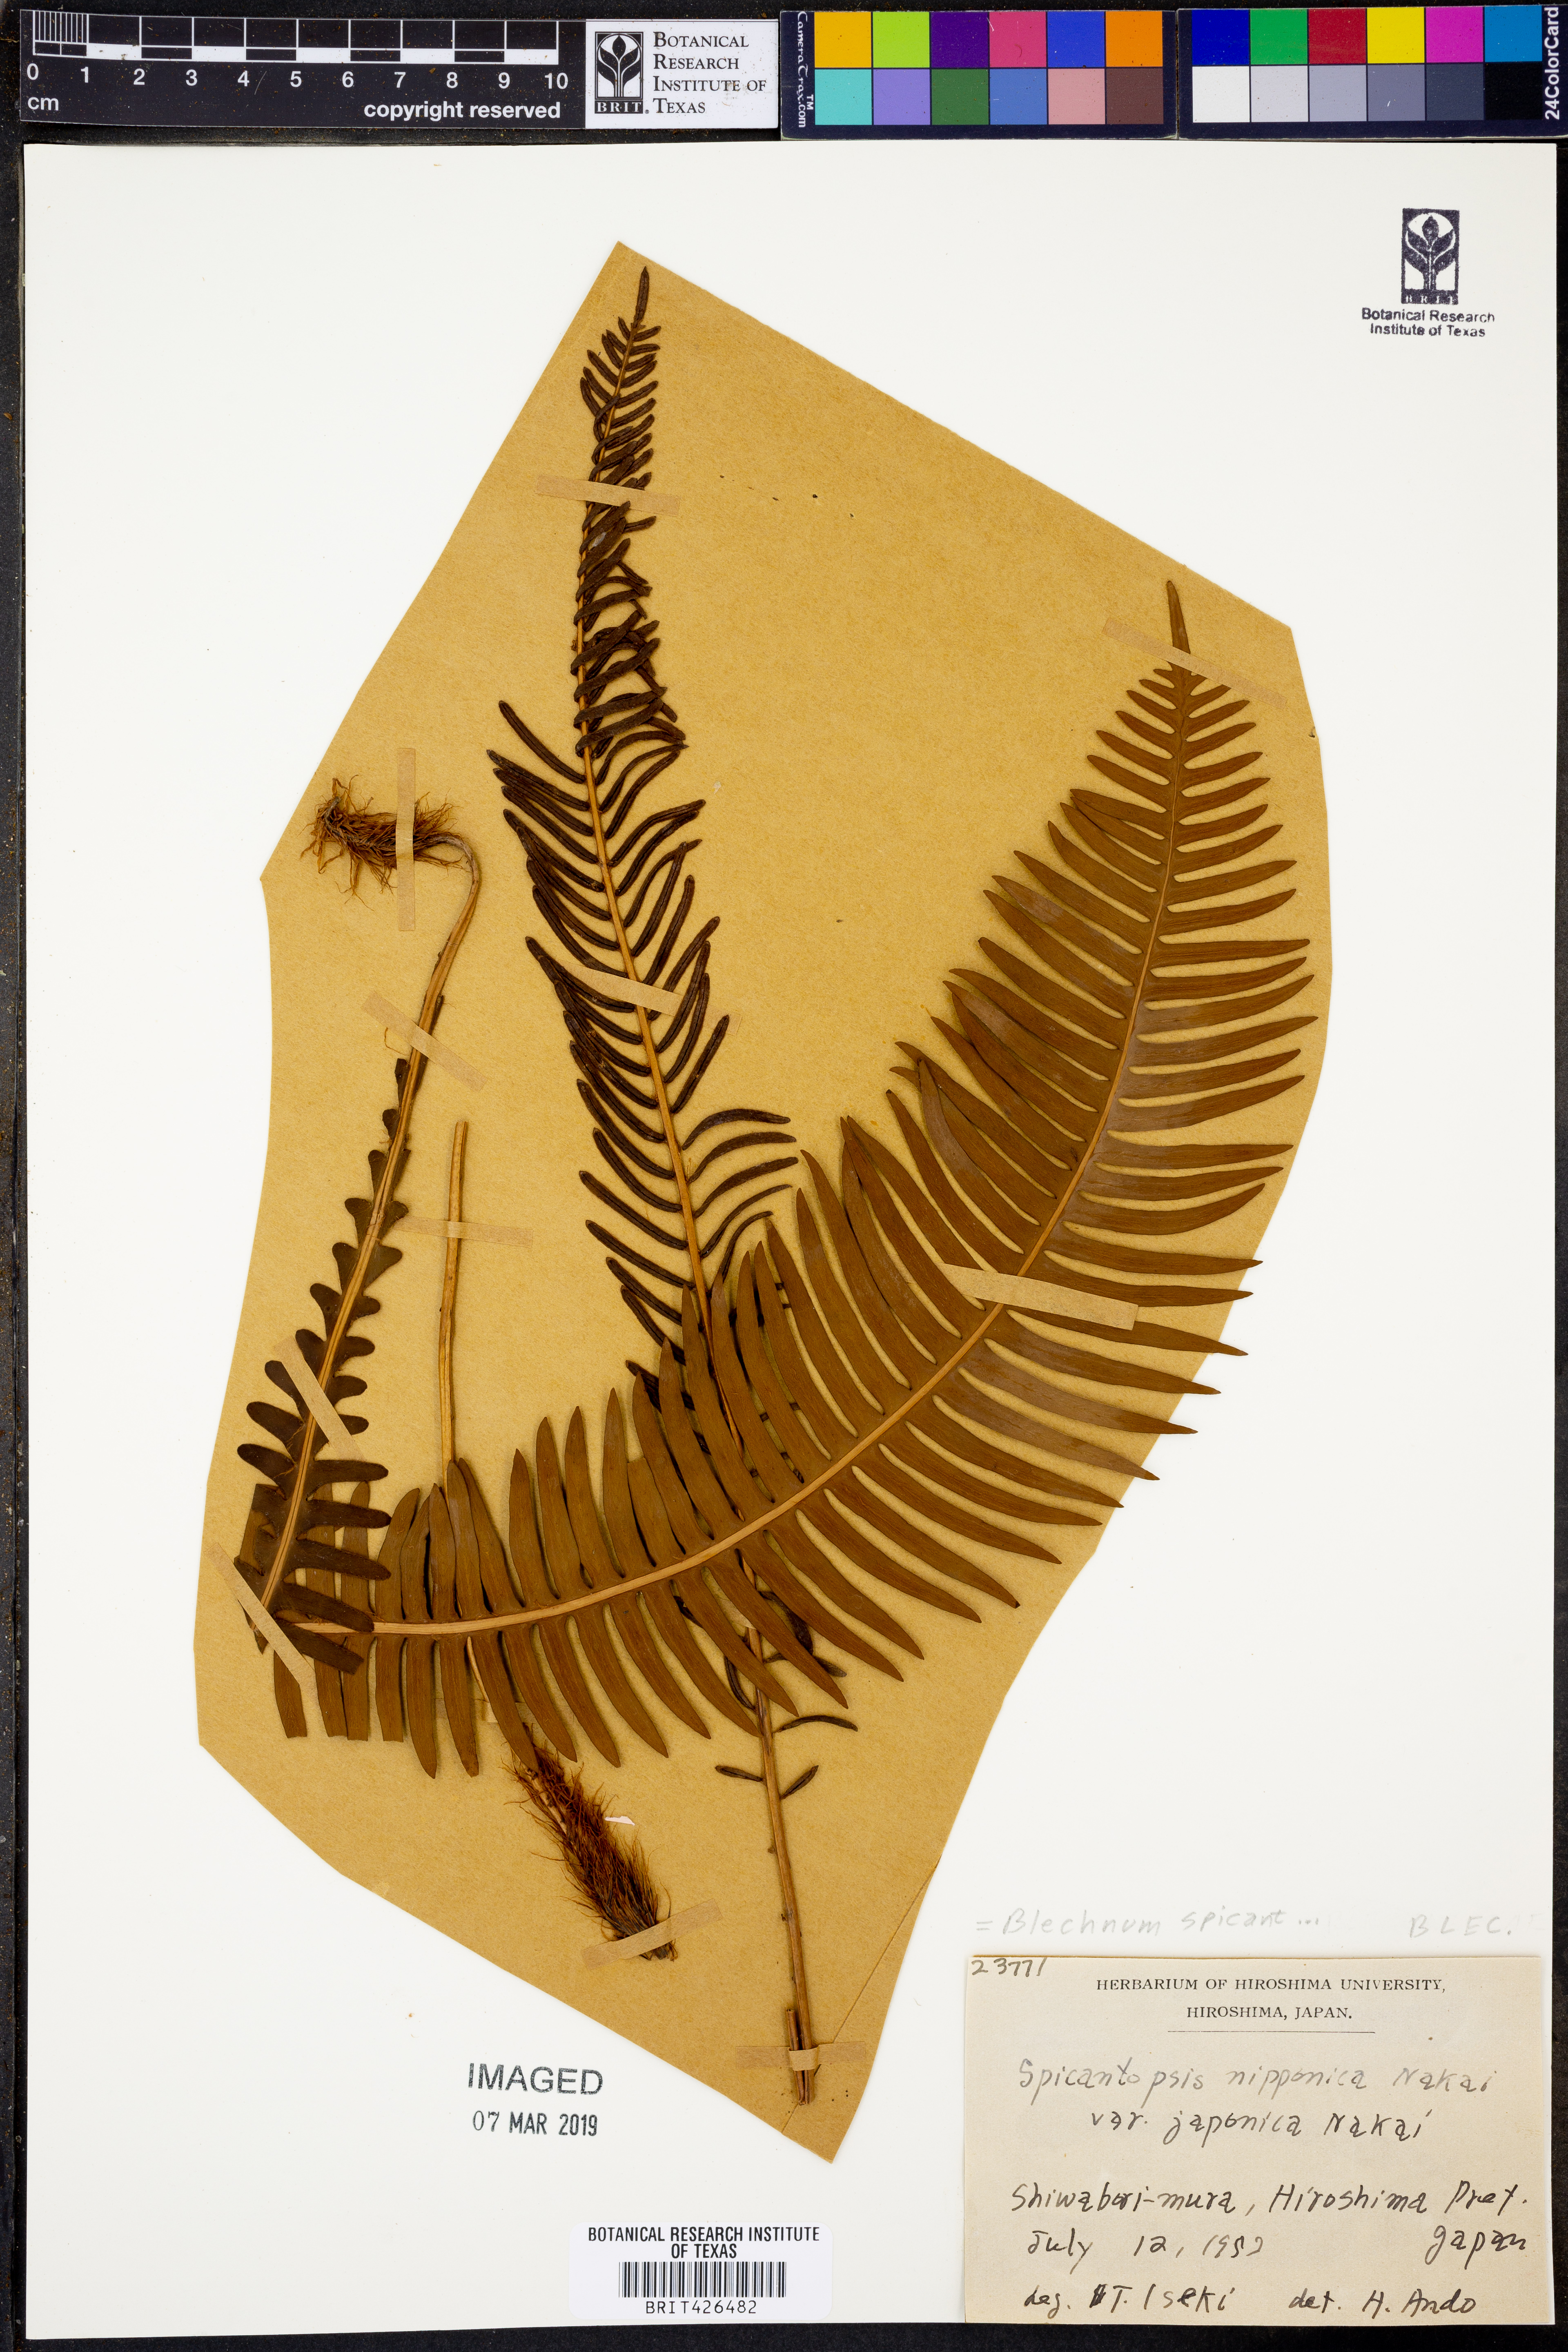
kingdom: Plantae
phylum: Tracheophyta
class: Polypodiopsida
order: Polypodiales
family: Blechnaceae
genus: Struthiopteris
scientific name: Struthiopteris spicant
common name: Deer fern
